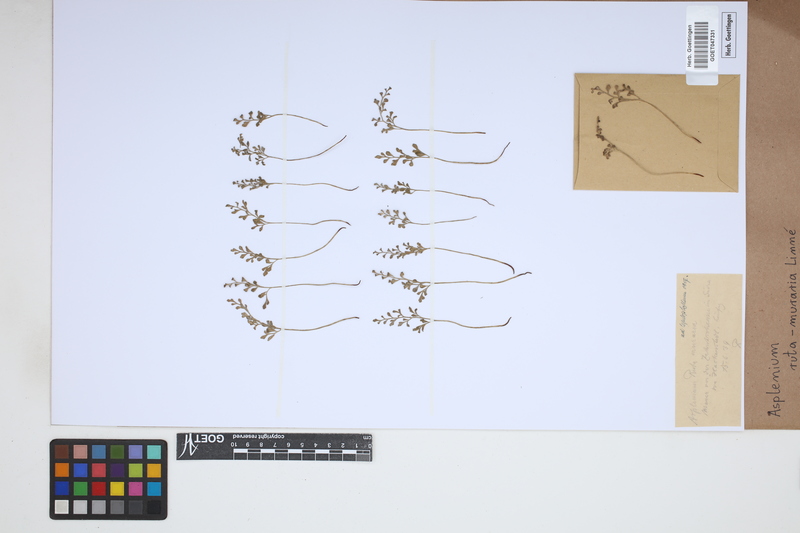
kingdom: Plantae
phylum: Tracheophyta
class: Polypodiopsida
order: Polypodiales
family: Aspleniaceae
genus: Asplenium
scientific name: Asplenium ruta-muraria
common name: Wall-rue
